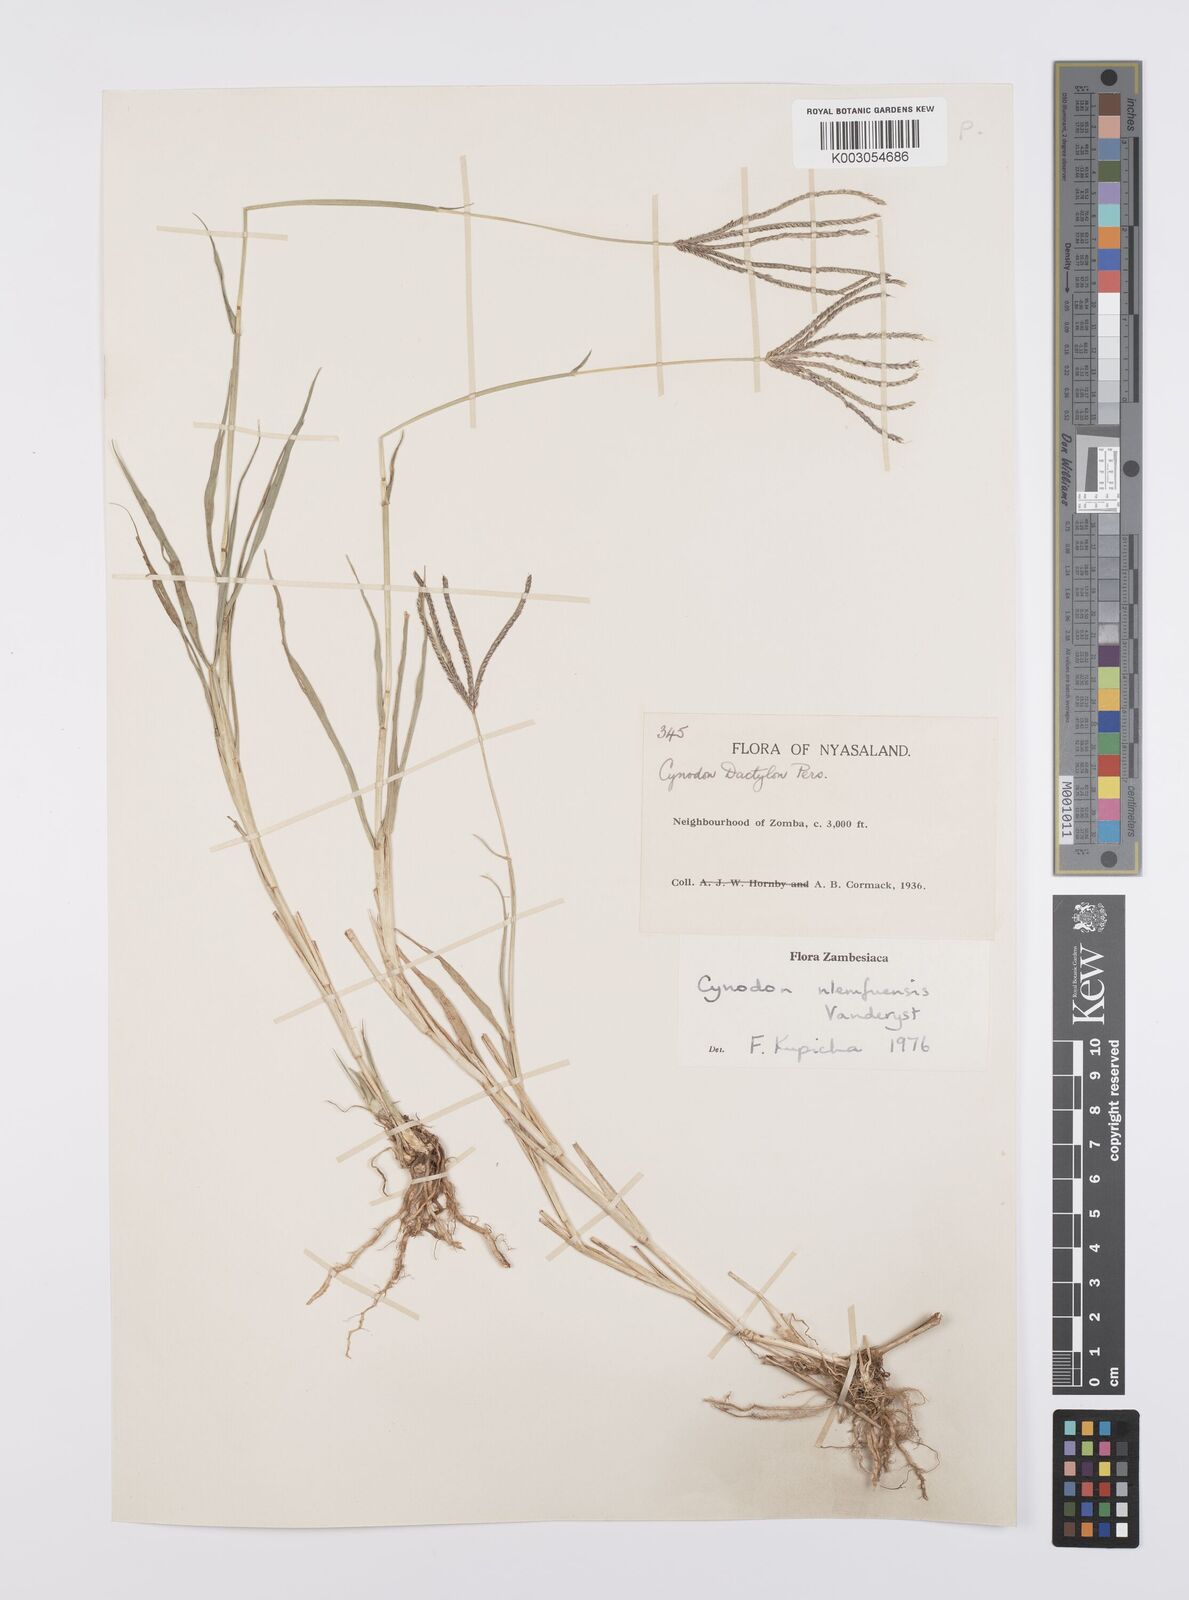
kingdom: Plantae
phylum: Tracheophyta
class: Liliopsida
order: Poales
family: Poaceae
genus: Cynodon
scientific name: Cynodon nlemfuensis
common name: African bermudagrass
